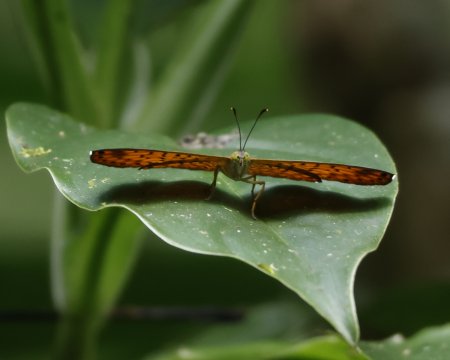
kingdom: Animalia
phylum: Arthropoda
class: Insecta
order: Lepidoptera
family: Riodinidae
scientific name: Riodinidae
